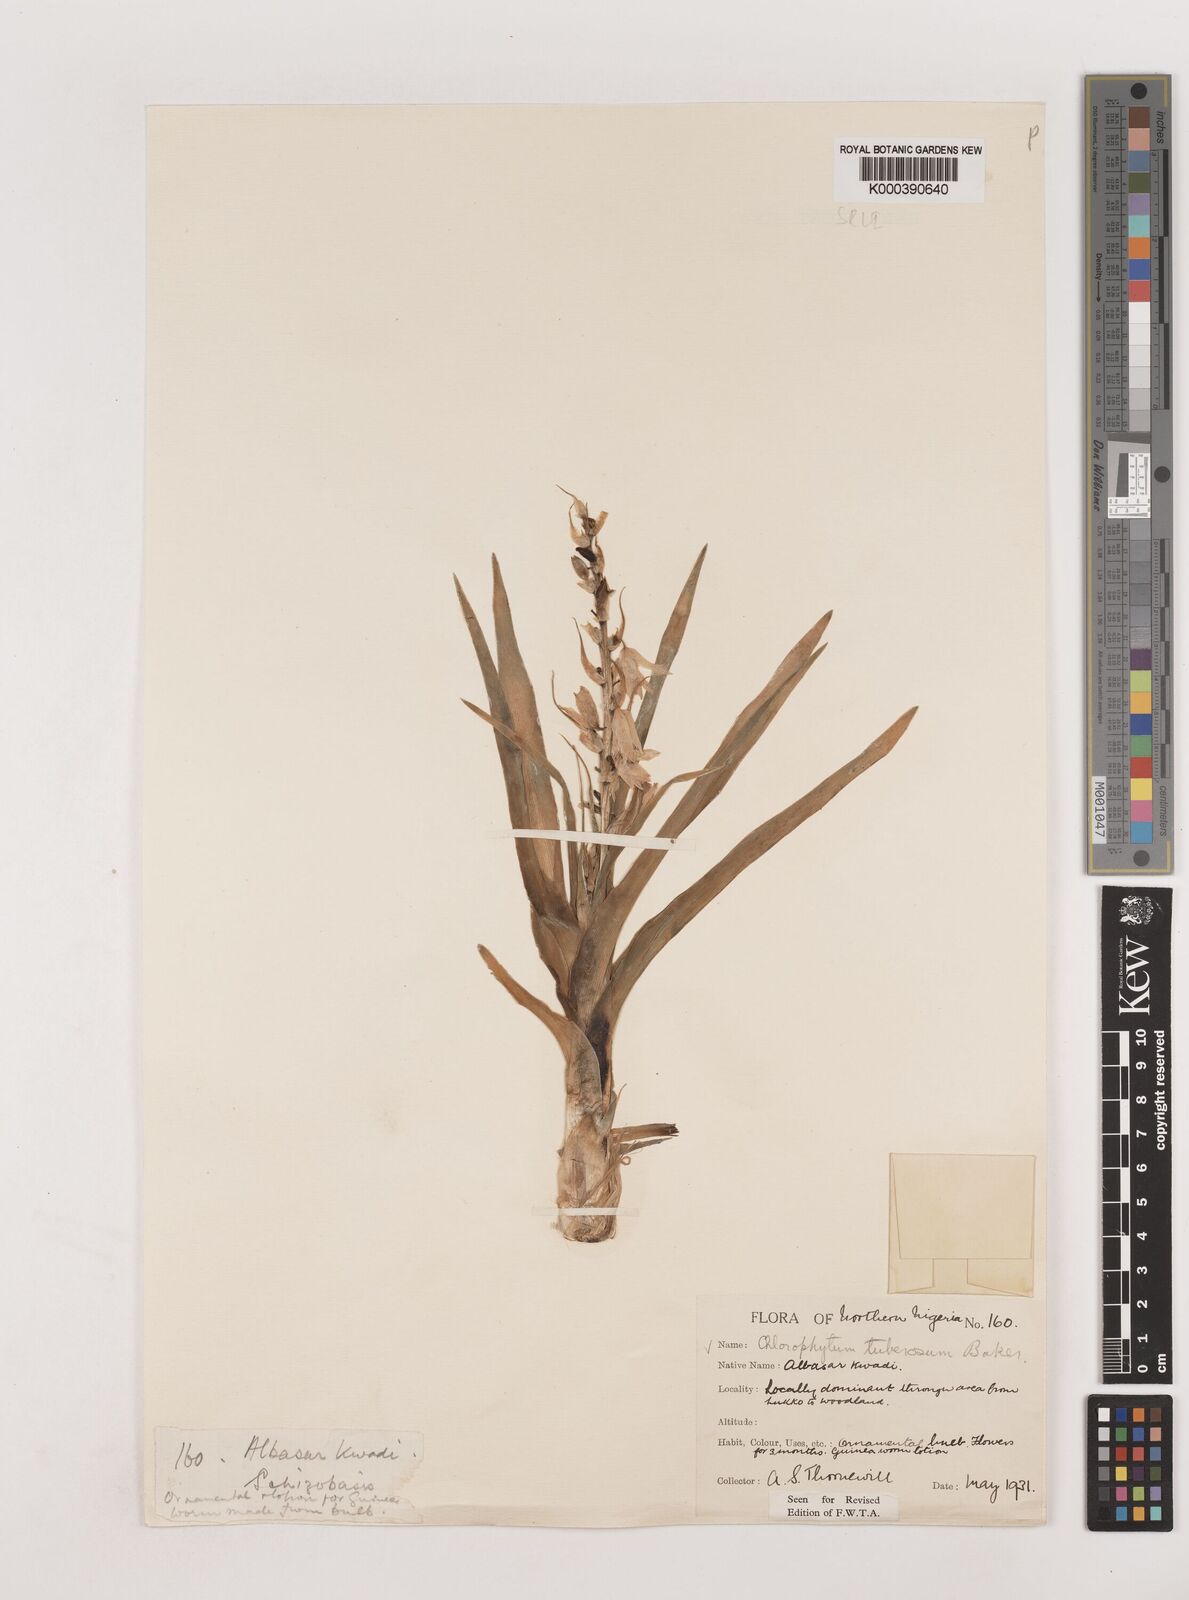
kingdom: Plantae
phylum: Tracheophyta
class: Liliopsida
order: Asparagales
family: Asparagaceae
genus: Chlorophytum
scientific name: Chlorophytum tuberosum
